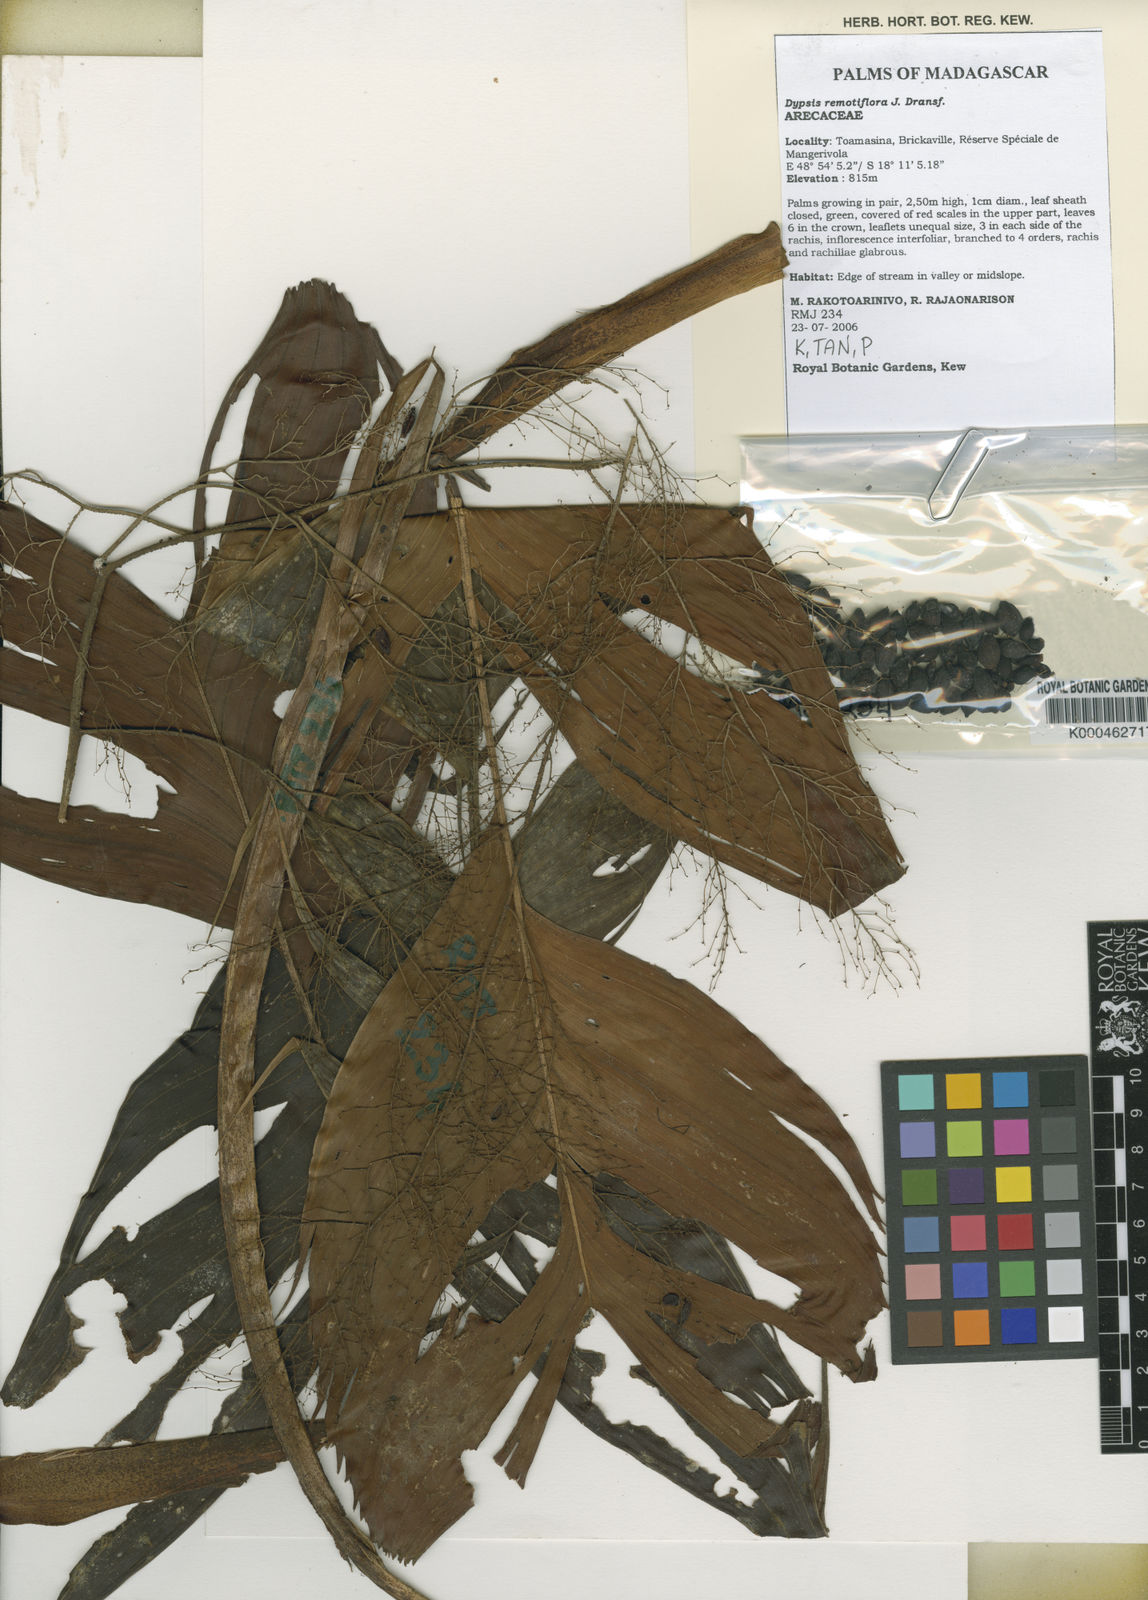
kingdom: Plantae
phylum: Tracheophyta
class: Liliopsida
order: Arecales
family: Arecaceae
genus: Dypsis
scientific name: Dypsis remotiflora
